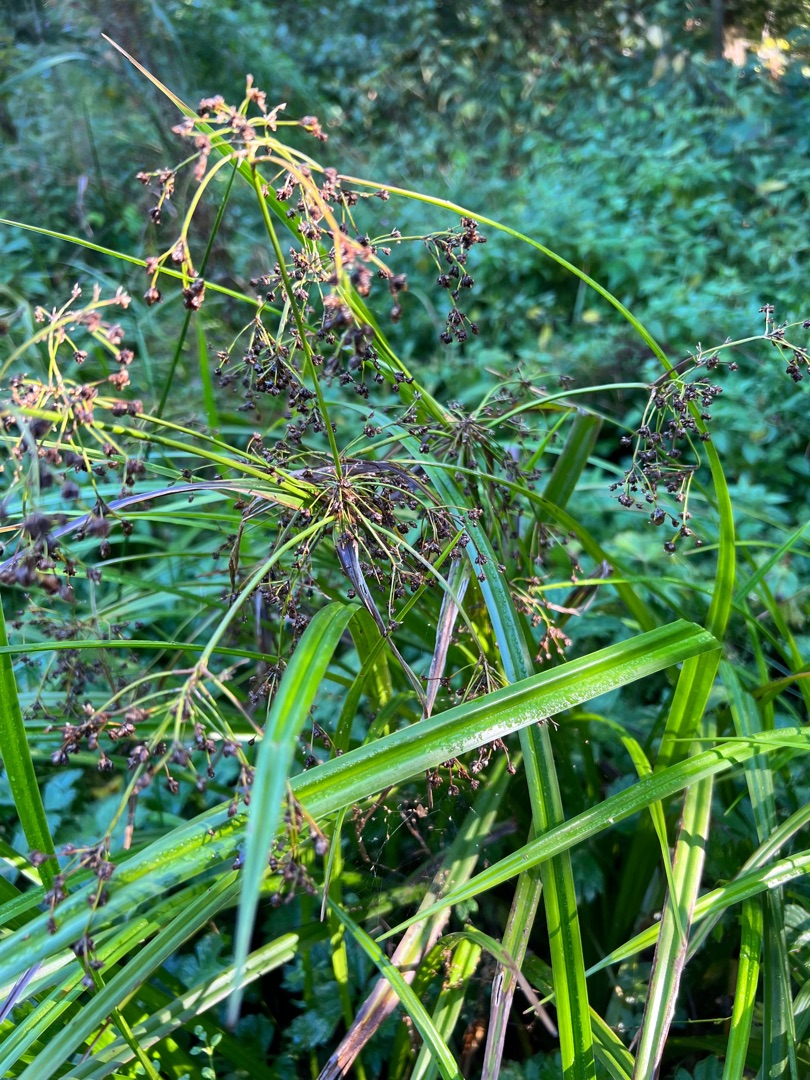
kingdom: Plantae
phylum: Tracheophyta
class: Liliopsida
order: Poales
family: Cyperaceae
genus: Scirpus
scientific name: Scirpus sylvaticus
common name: Skov-kogleaks
